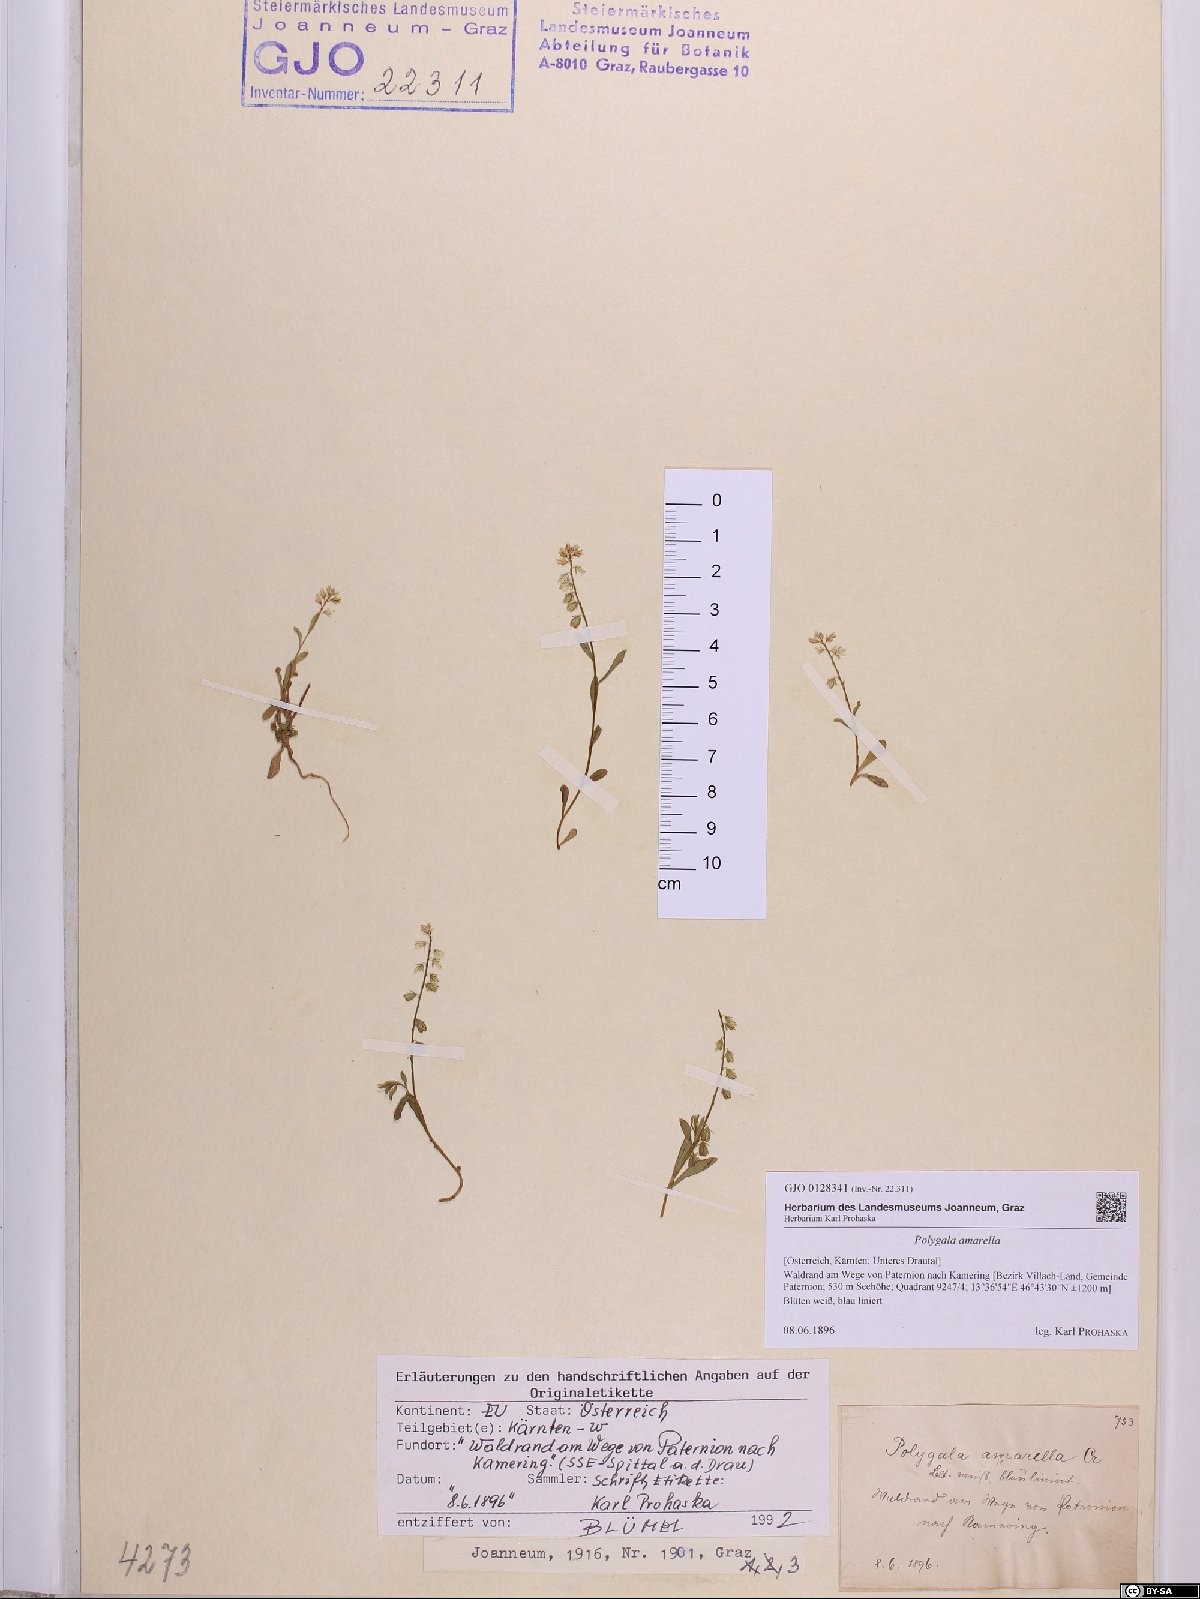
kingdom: Plantae
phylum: Tracheophyta
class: Magnoliopsida
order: Fabales
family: Polygalaceae
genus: Polygala
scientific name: Polygala amarella
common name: Dwarf milkwort
